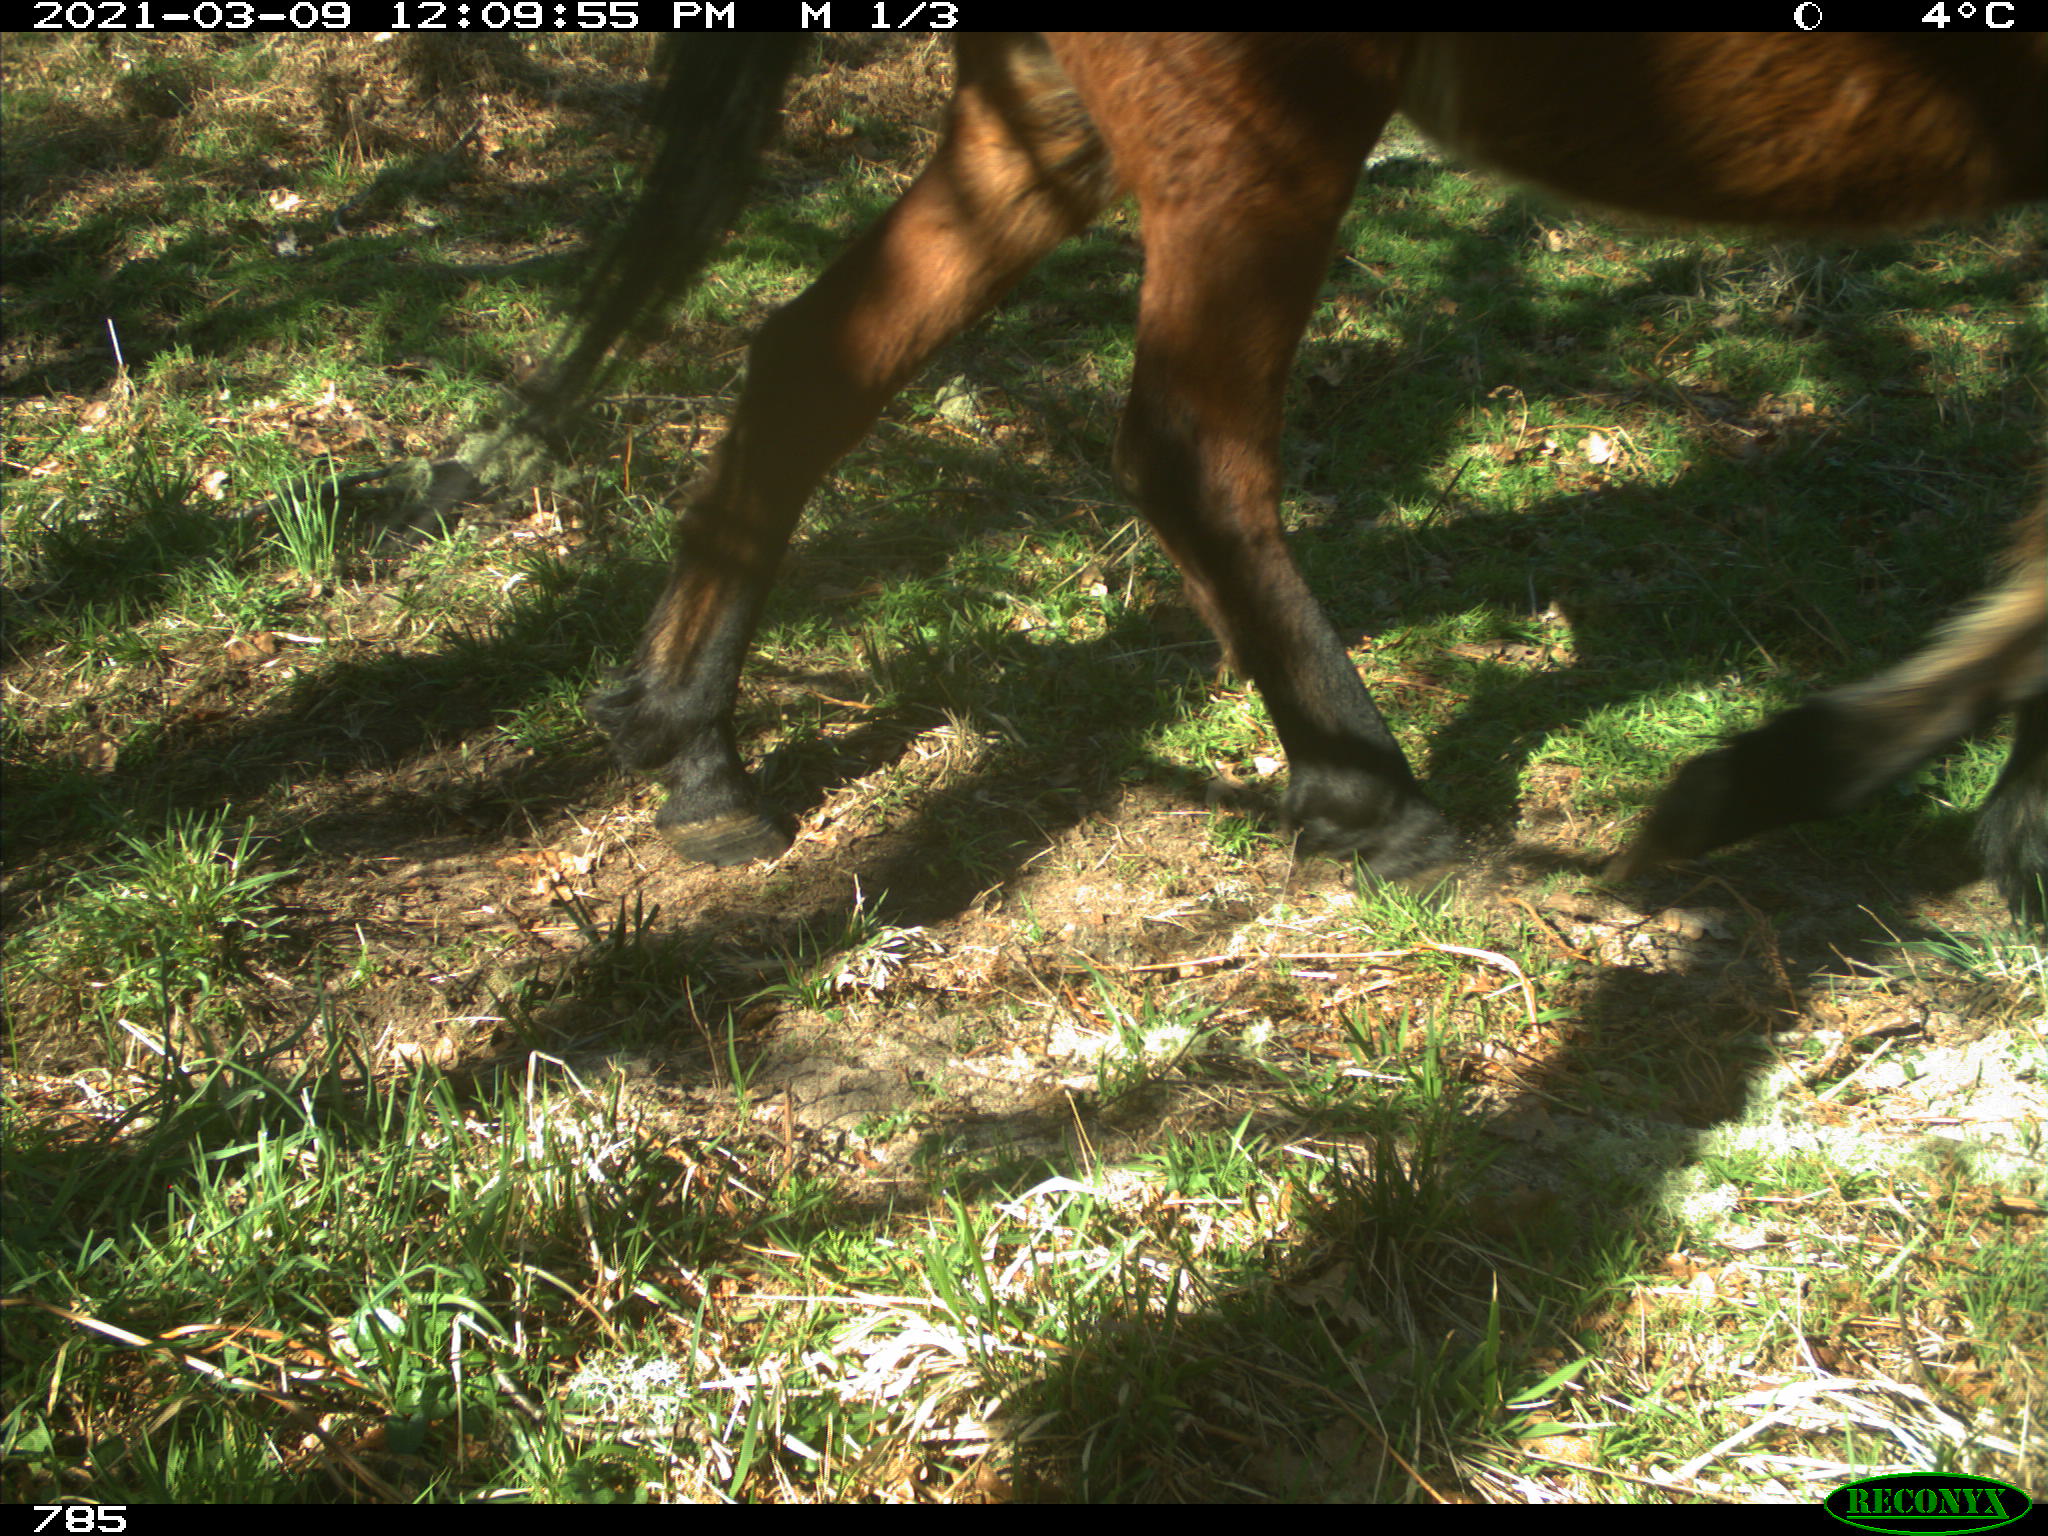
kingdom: Animalia
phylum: Chordata
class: Mammalia
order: Perissodactyla
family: Equidae
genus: Equus
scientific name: Equus caballus
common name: Horse
